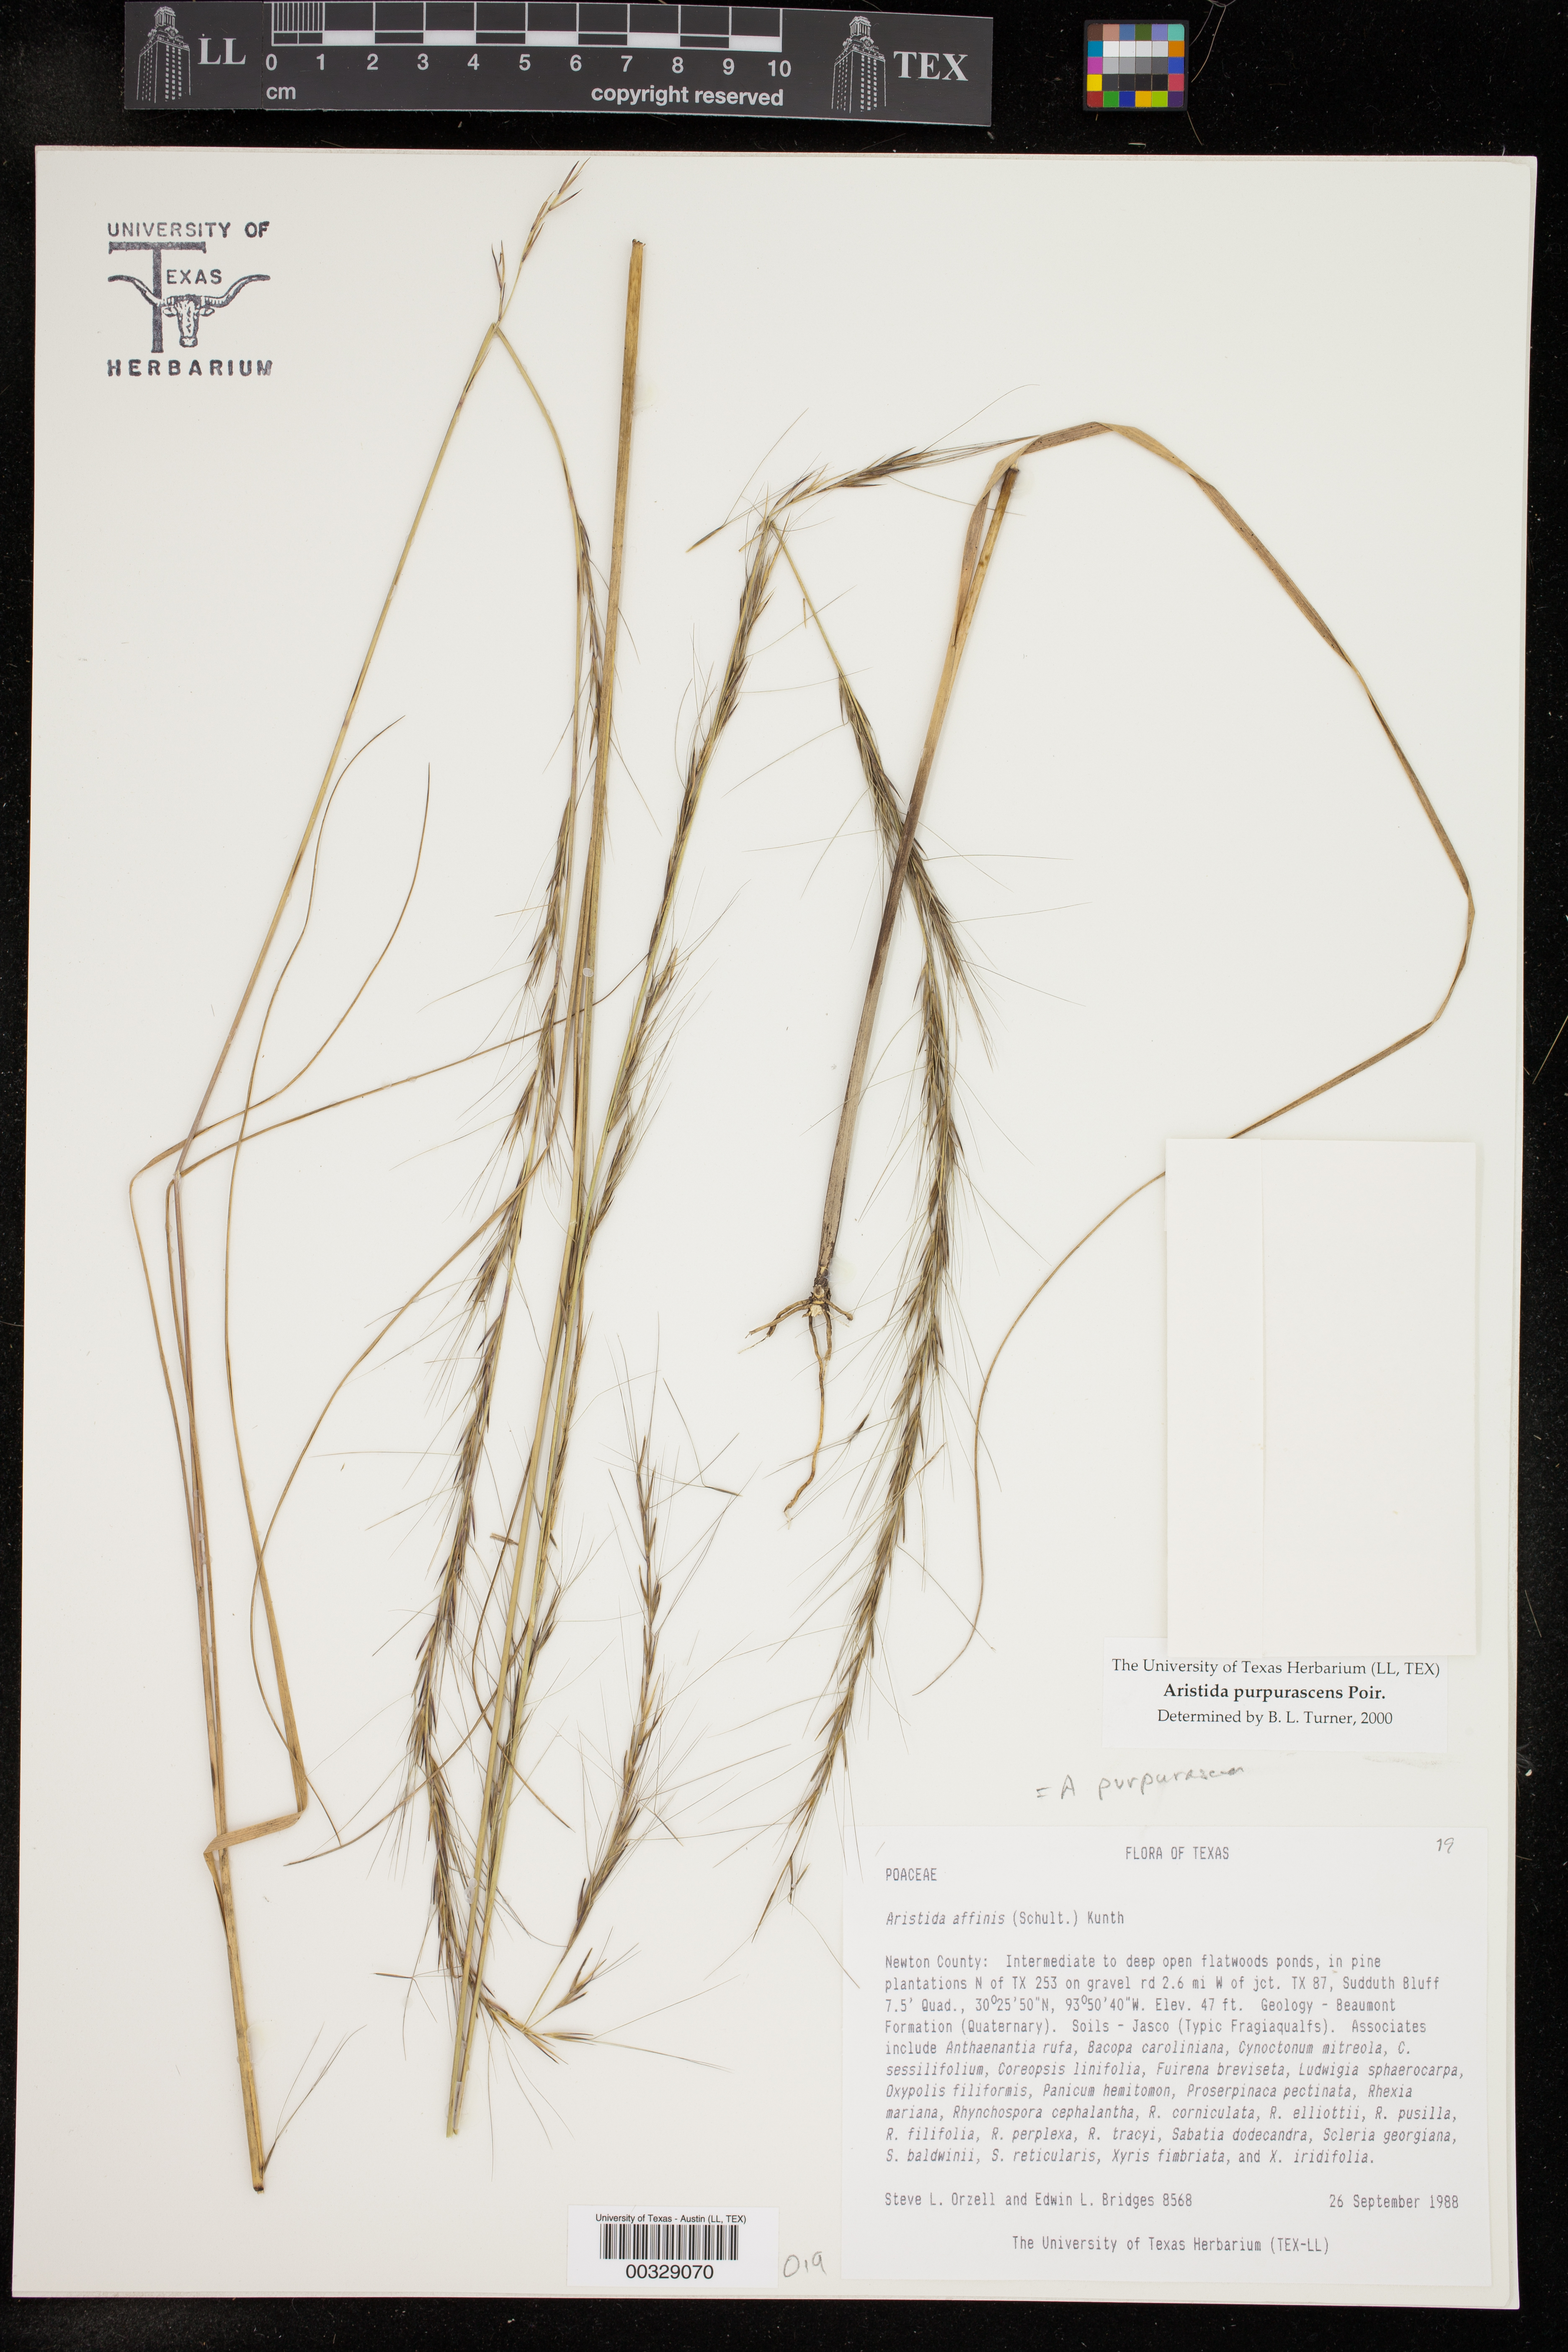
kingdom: Plantae
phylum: Tracheophyta
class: Liliopsida
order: Poales
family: Poaceae
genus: Aristida
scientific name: Aristida purpurascens
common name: Arrow-feather
